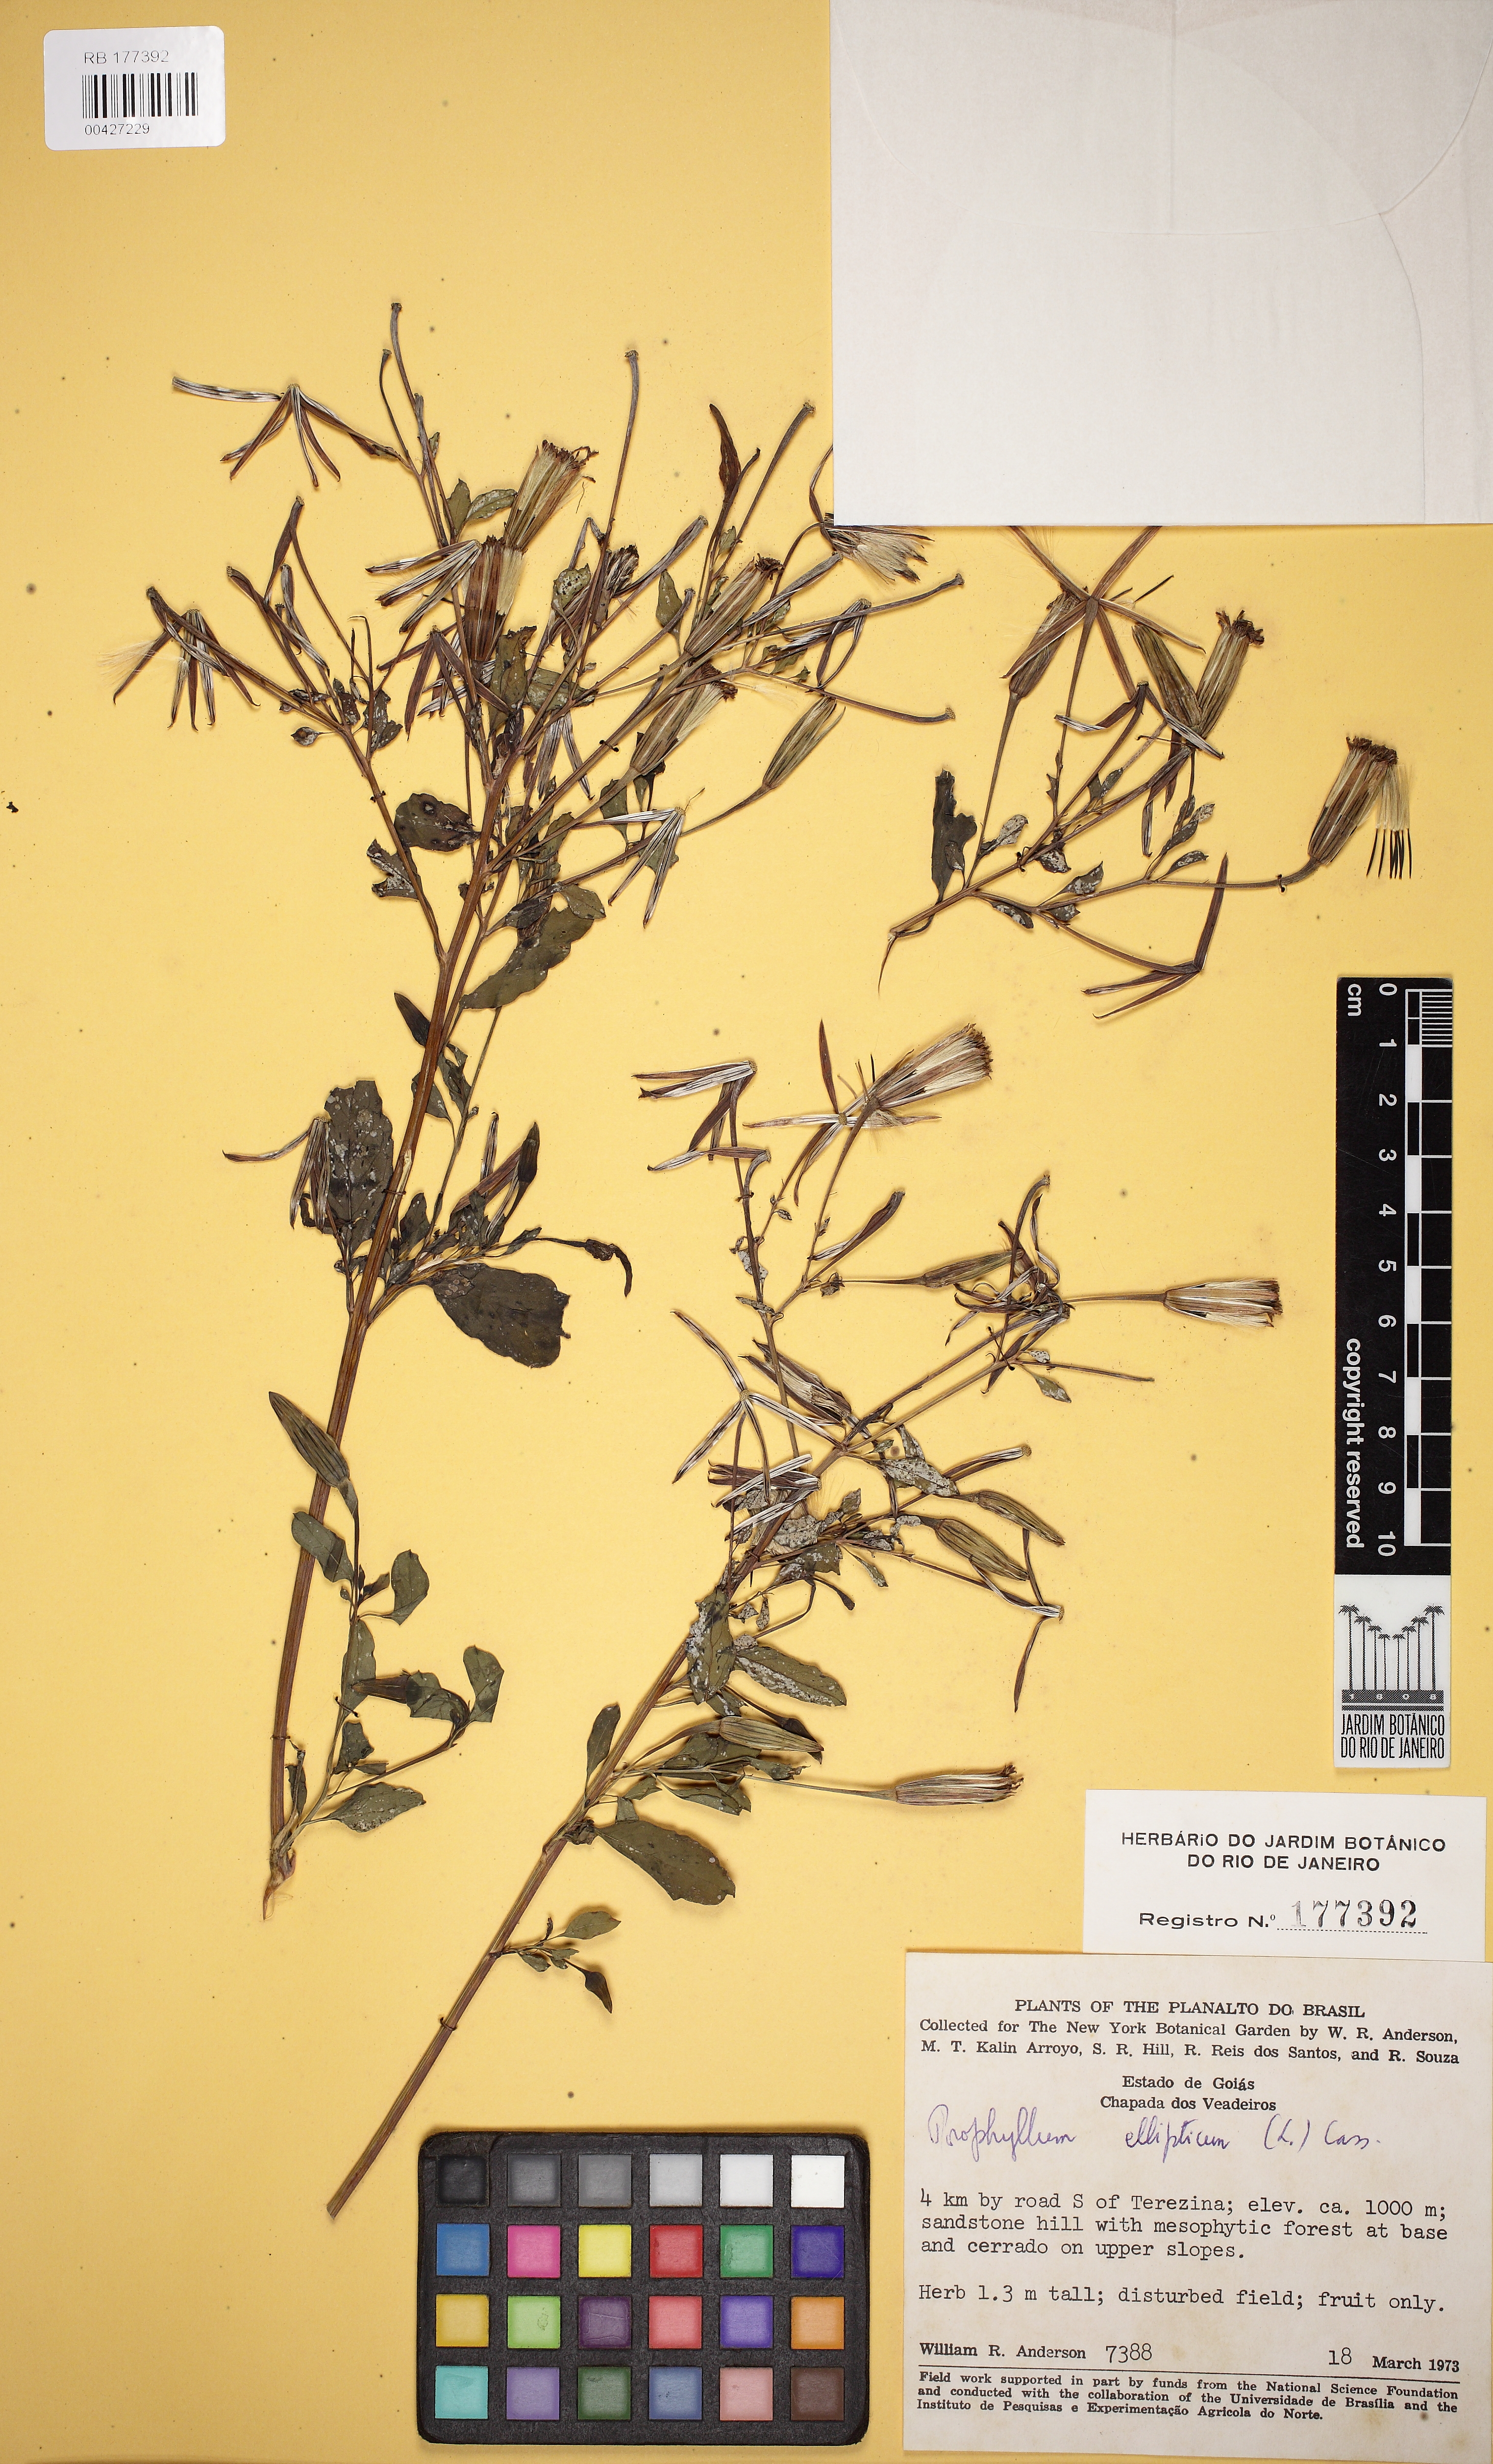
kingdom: Plantae
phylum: Tracheophyta
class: Magnoliopsida
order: Asterales
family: Asteraceae
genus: Porophyllum
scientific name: Porophyllum ruderale
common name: Yerba porosa
